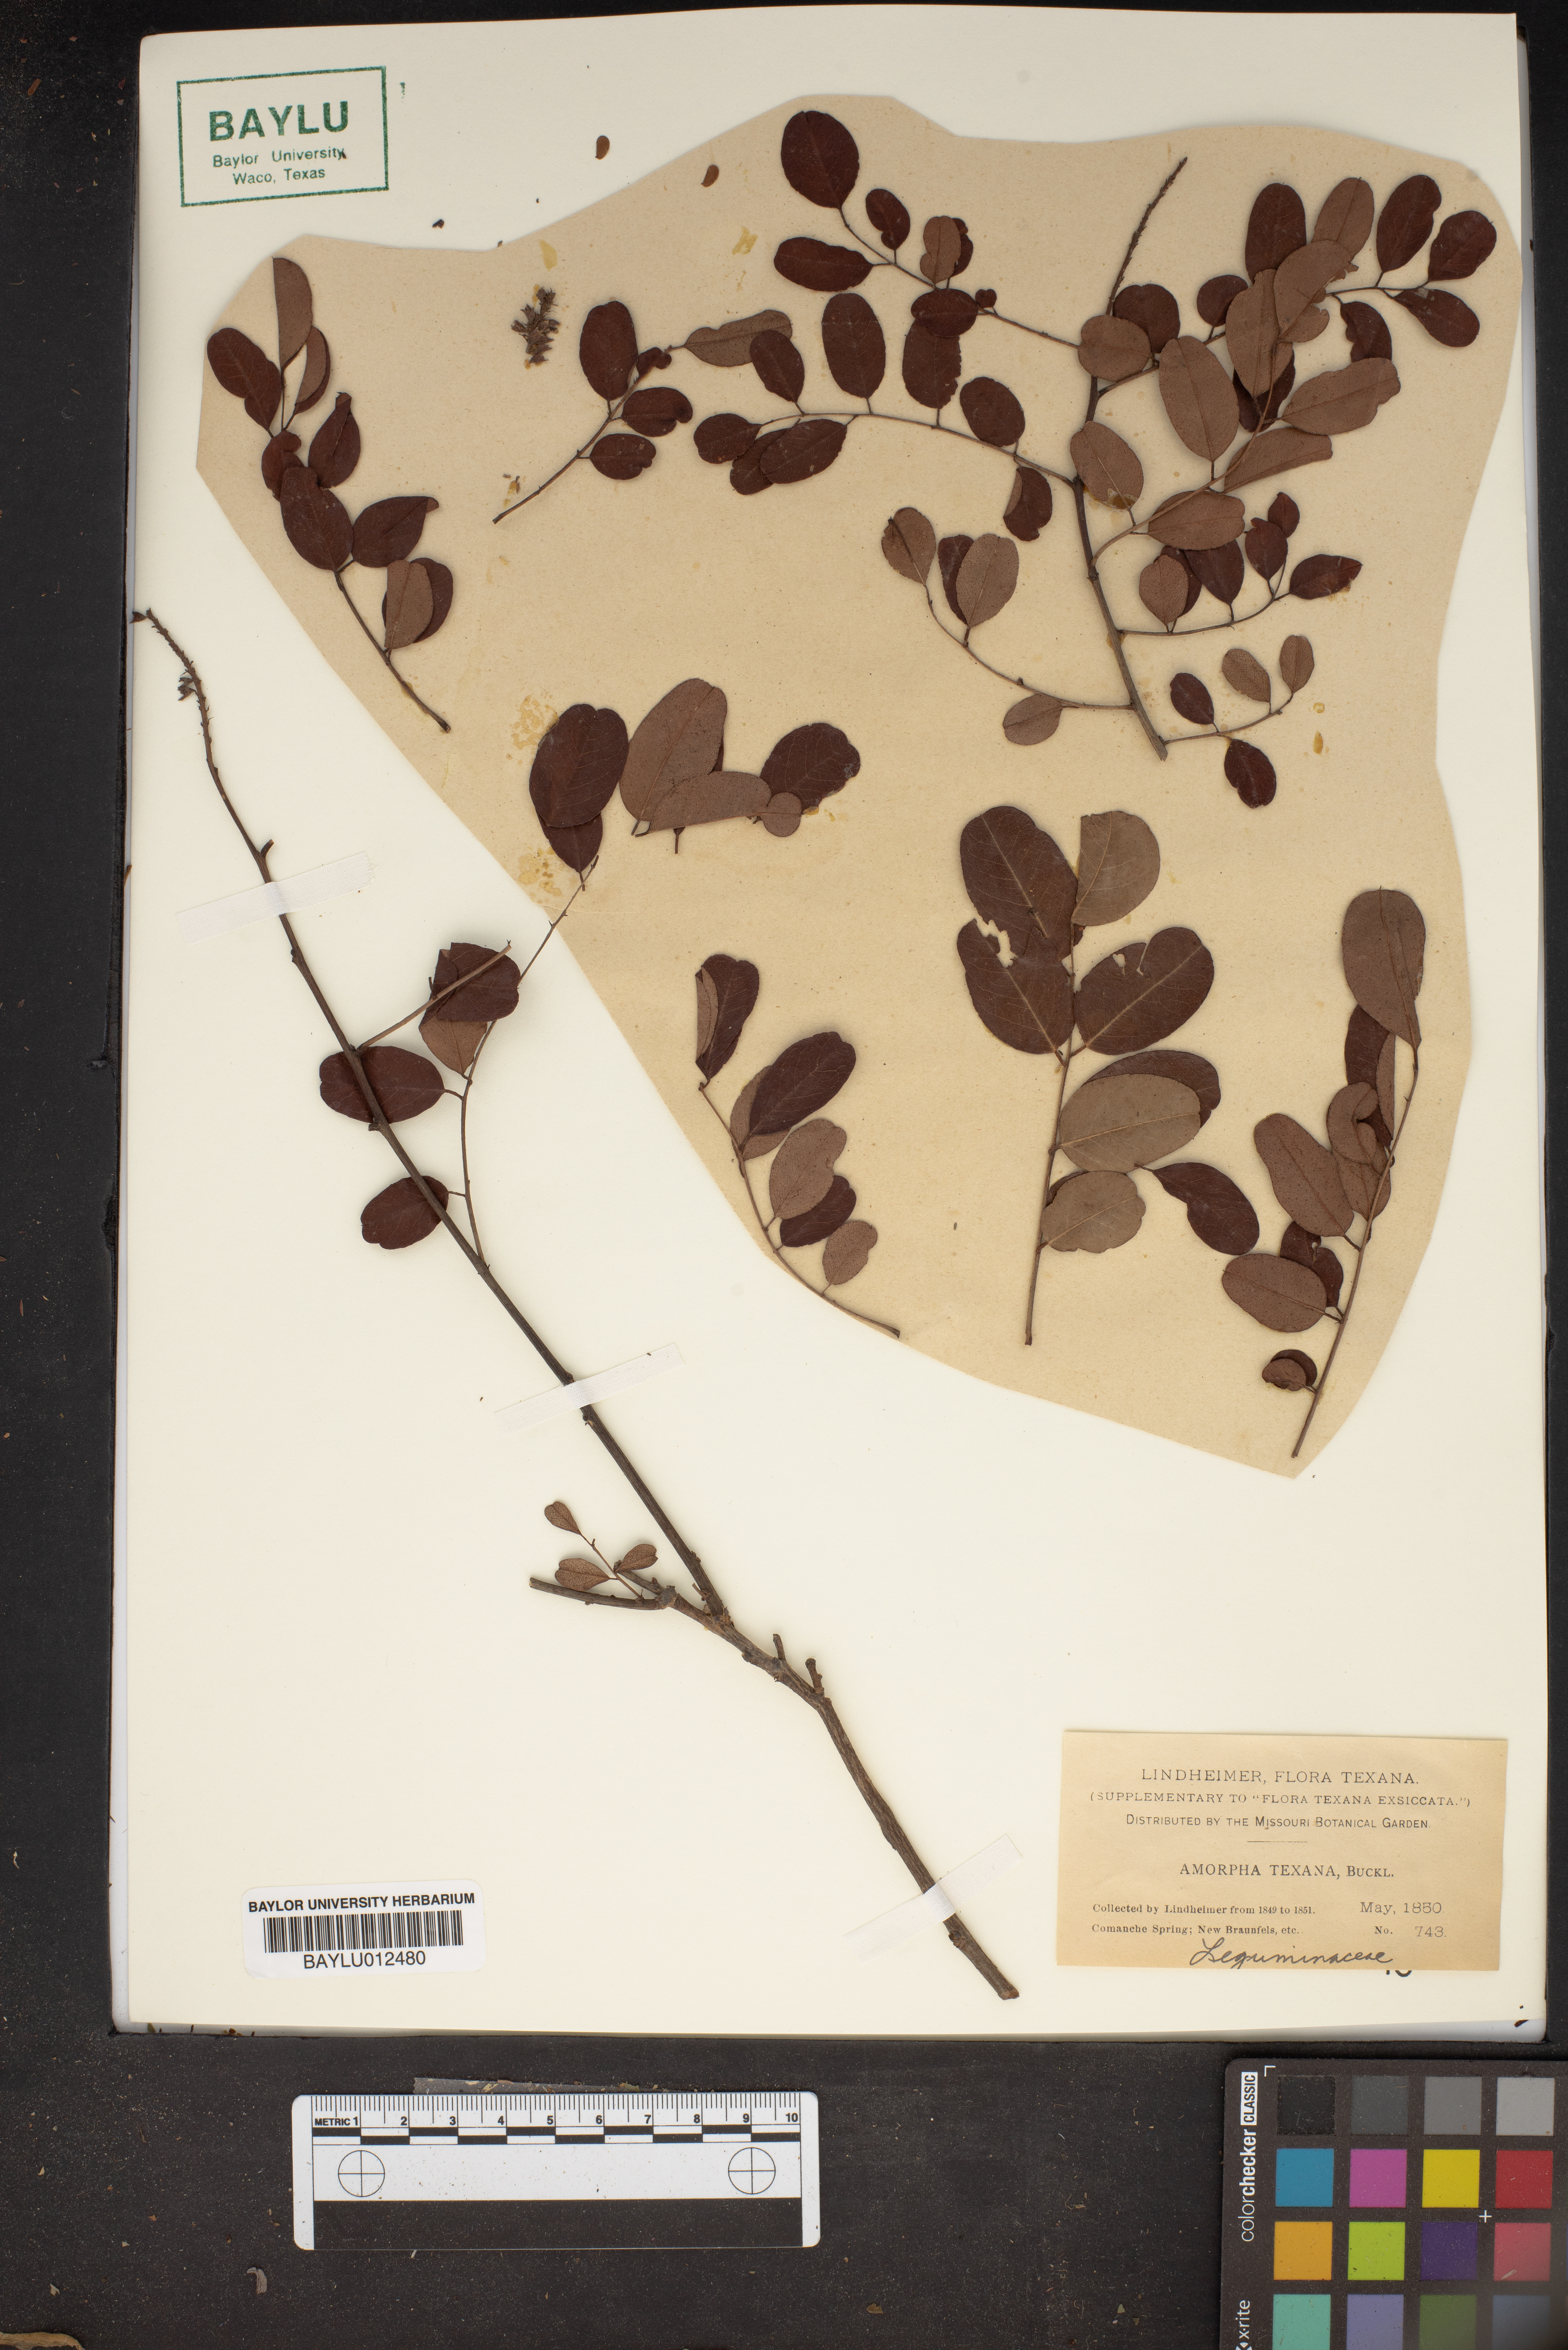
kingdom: Plantae
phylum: Tracheophyta
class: Magnoliopsida
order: Fabales
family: Fabaceae
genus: Amorpha
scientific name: Amorpha roemeriana
